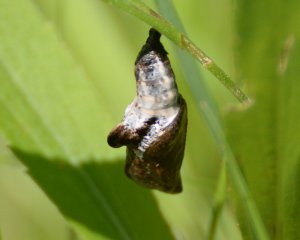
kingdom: Animalia
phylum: Arthropoda
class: Insecta
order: Lepidoptera
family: Nymphalidae
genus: Limenitis
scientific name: Limenitis archippus
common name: Viceroy
